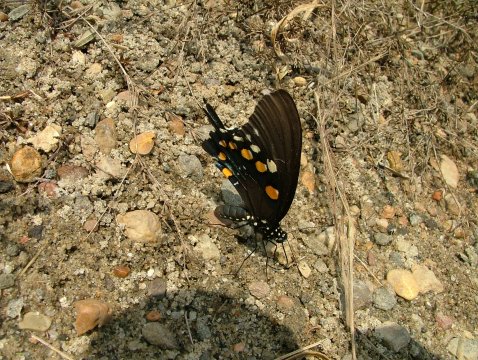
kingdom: Animalia
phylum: Arthropoda
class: Insecta
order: Lepidoptera
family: Papilionidae
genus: Battus
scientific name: Battus philenor
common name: Pipevine Swallowtail
